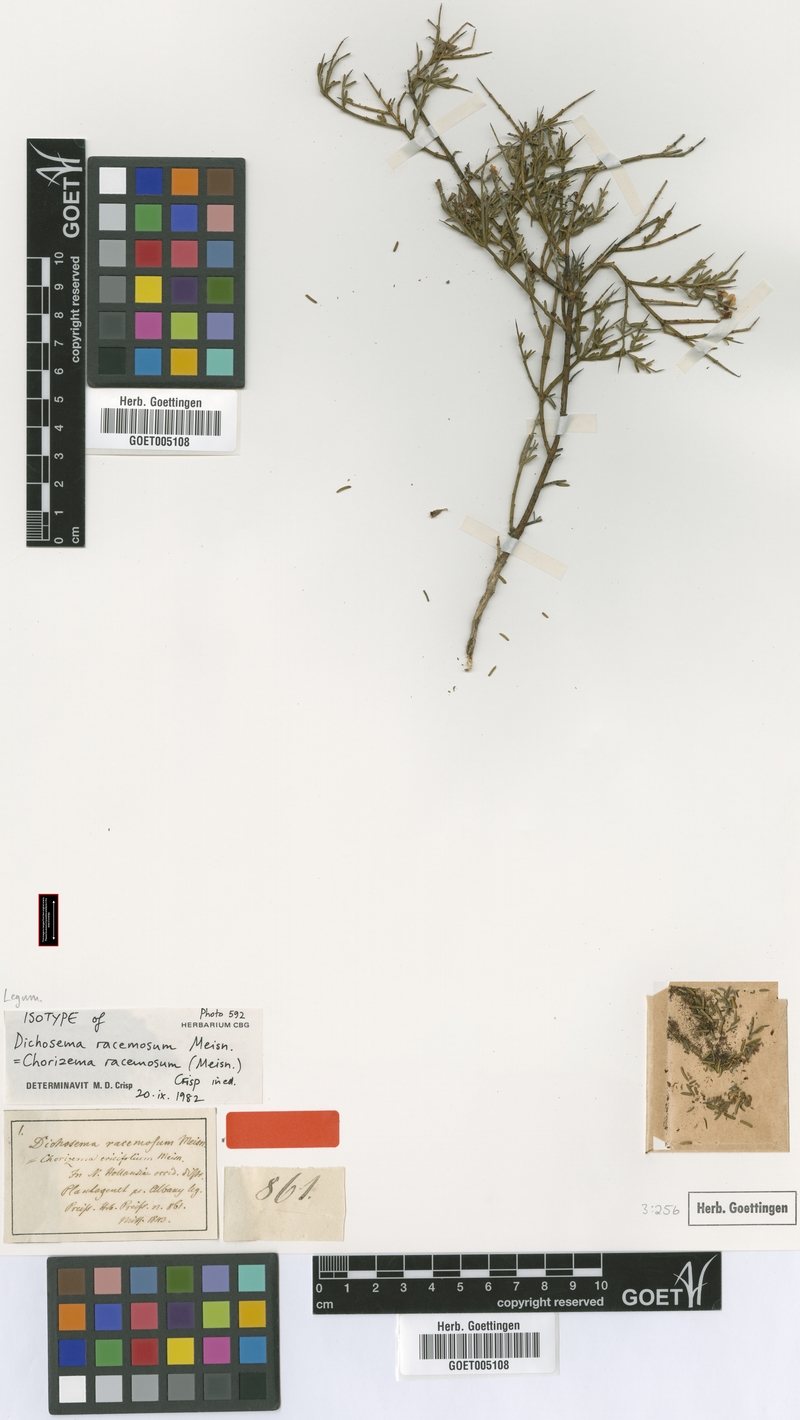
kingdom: Plantae
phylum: Tracheophyta
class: Magnoliopsida
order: Fabales
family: Fabaceae
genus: Chorizema
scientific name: Chorizema racemosum
